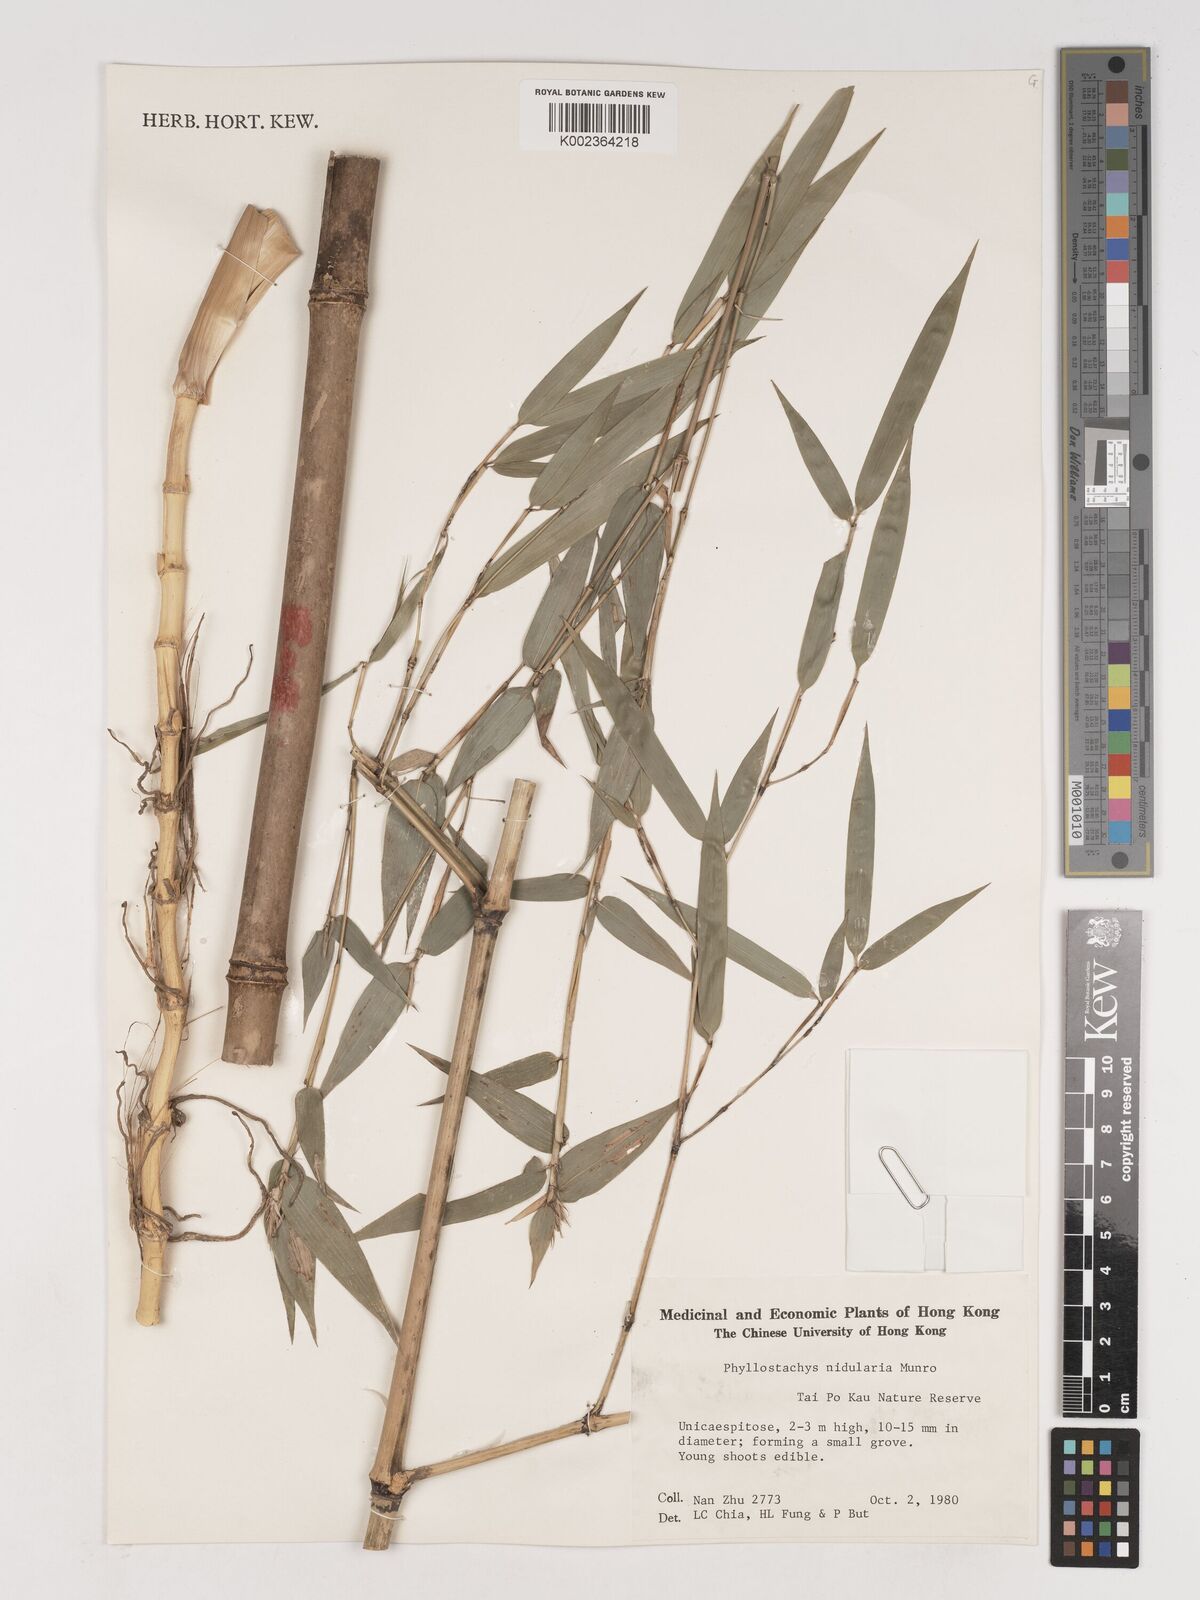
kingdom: Plantae
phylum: Tracheophyta
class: Liliopsida
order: Poales
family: Poaceae
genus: Phyllostachys
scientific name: Phyllostachys nidularia
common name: Broom bamboo
